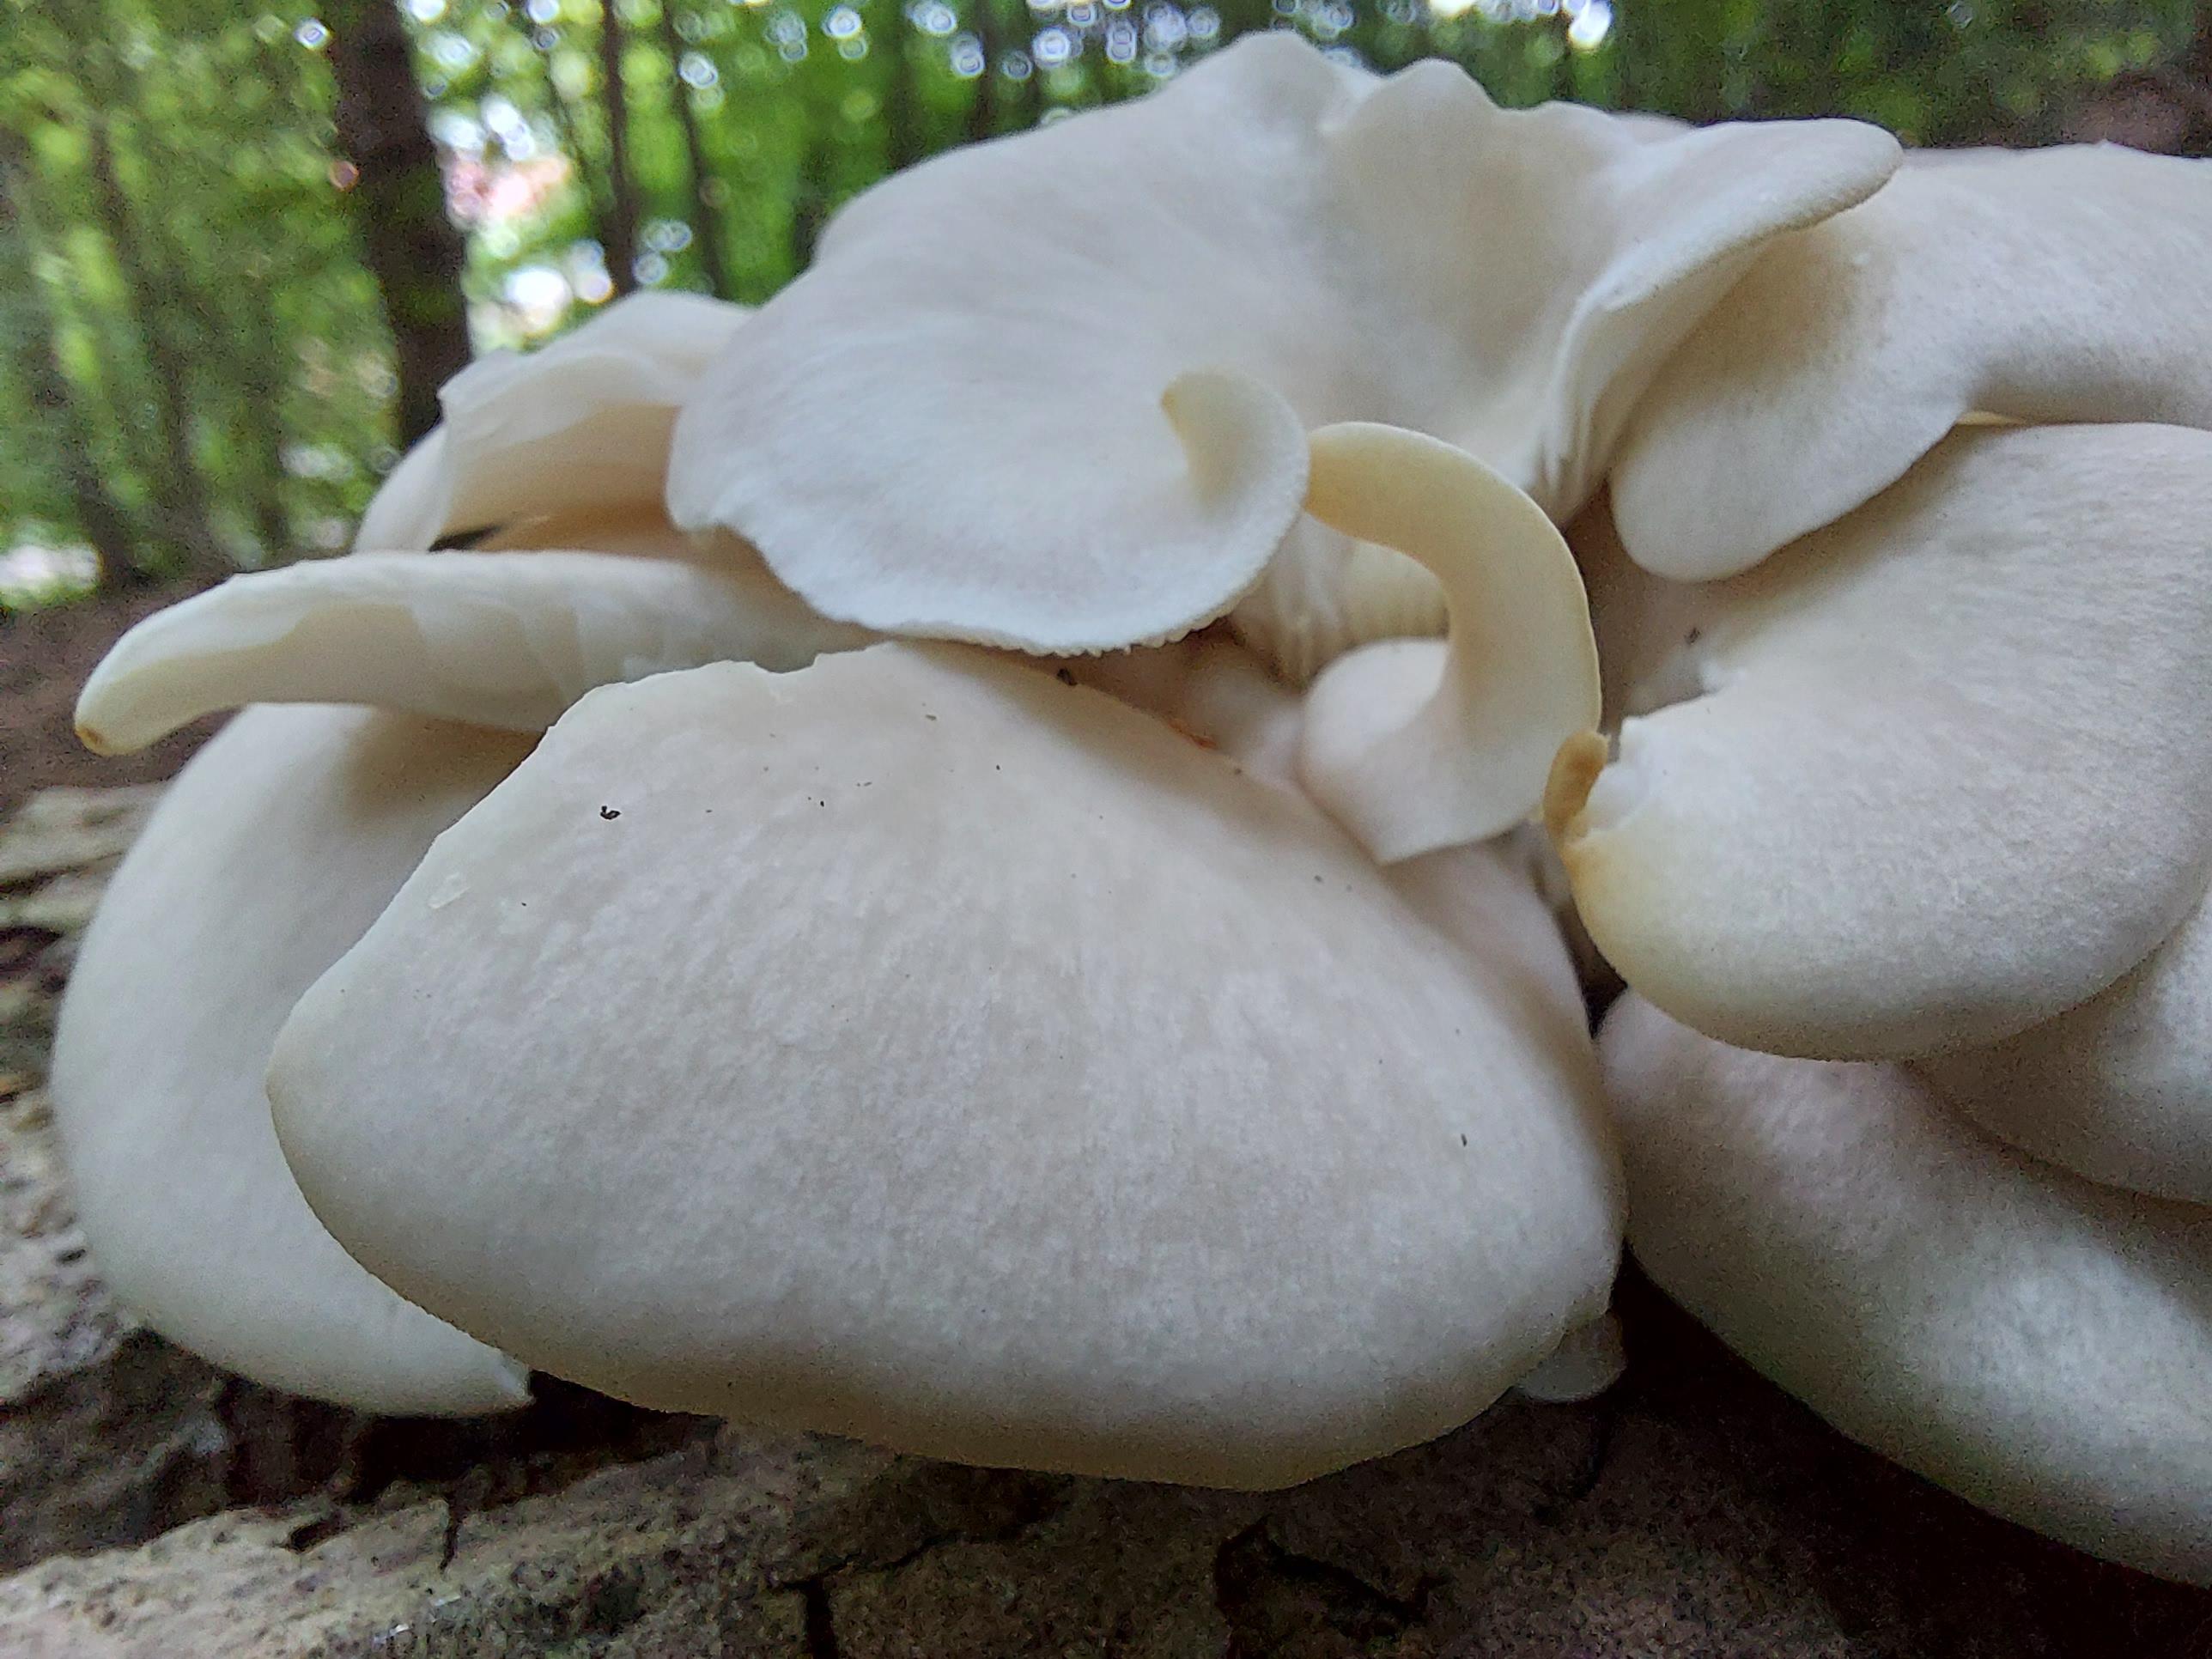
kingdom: Fungi
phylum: Basidiomycota
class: Agaricomycetes
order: Agaricales
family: Pleurotaceae
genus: Pleurotus
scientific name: Pleurotus pulmonarius
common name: sommer-østershat
